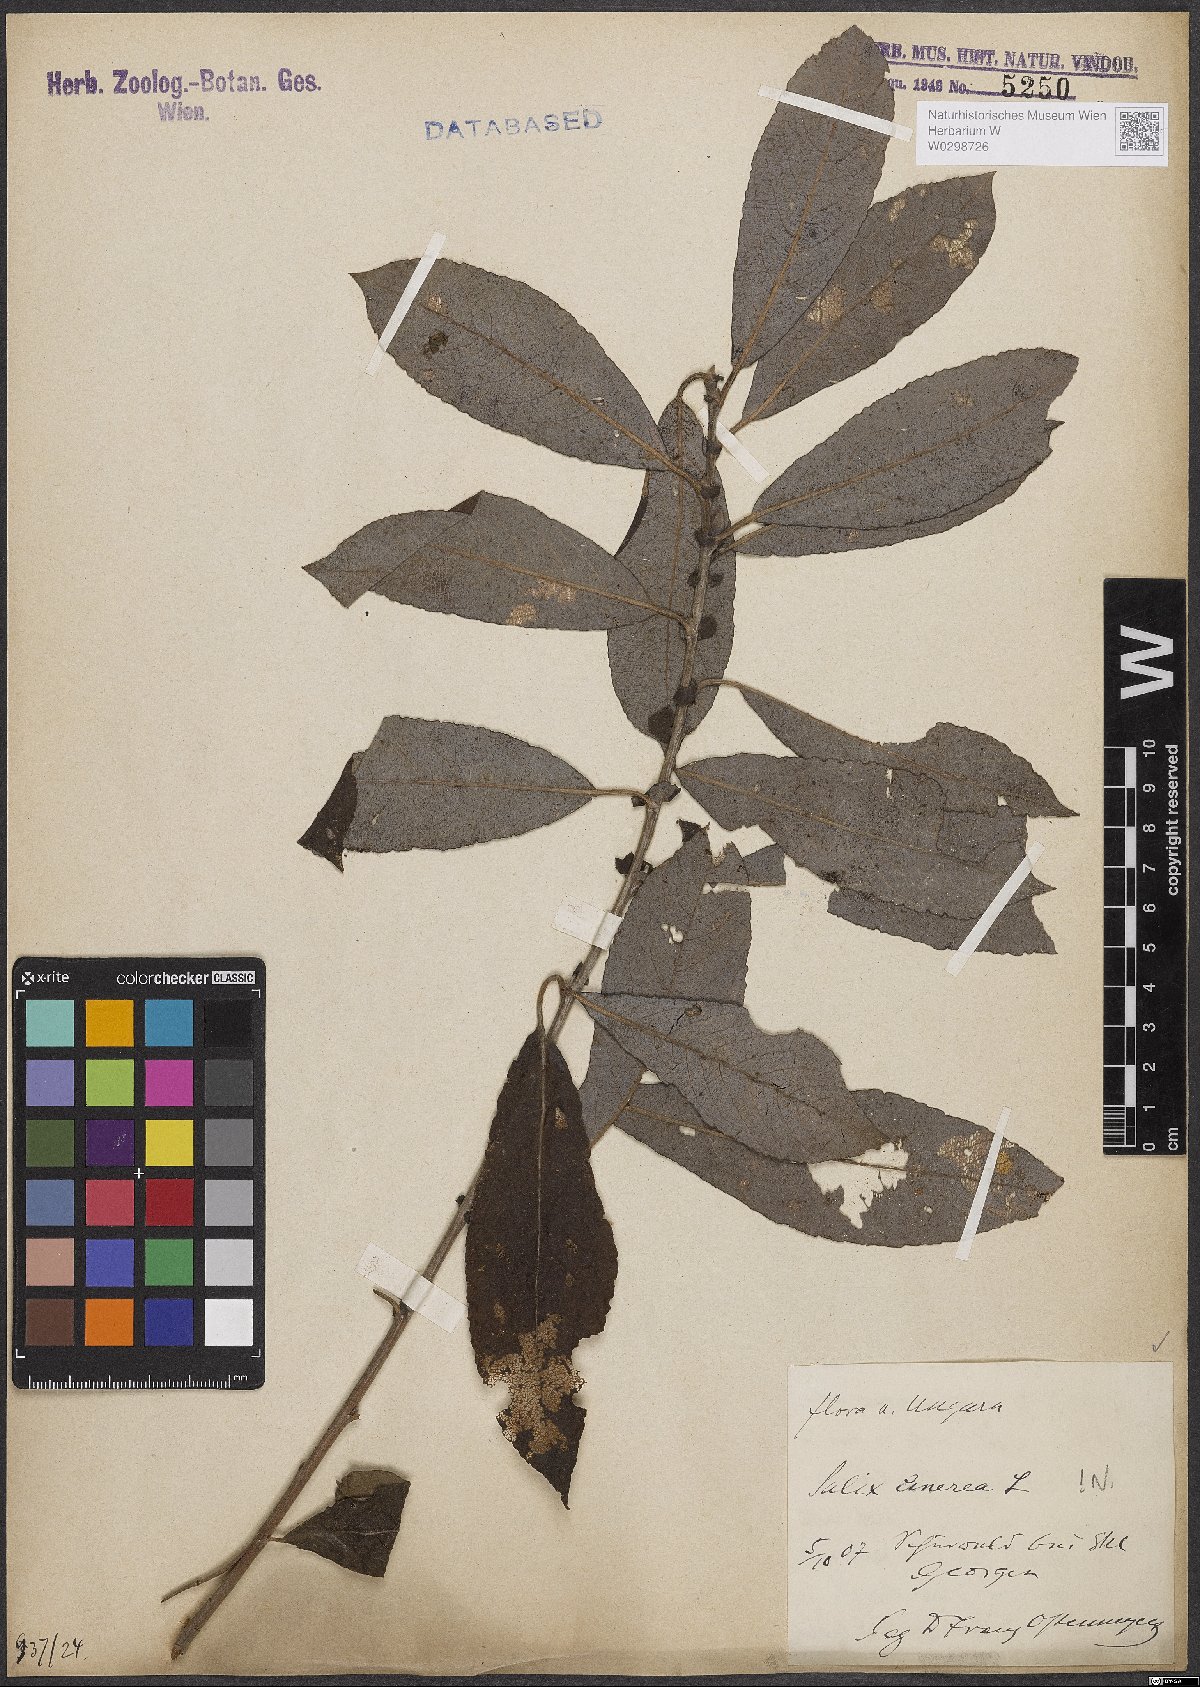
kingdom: Plantae
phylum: Tracheophyta
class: Magnoliopsida
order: Malpighiales
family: Salicaceae
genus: Salix
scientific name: Salix cinerea
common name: Common sallow
